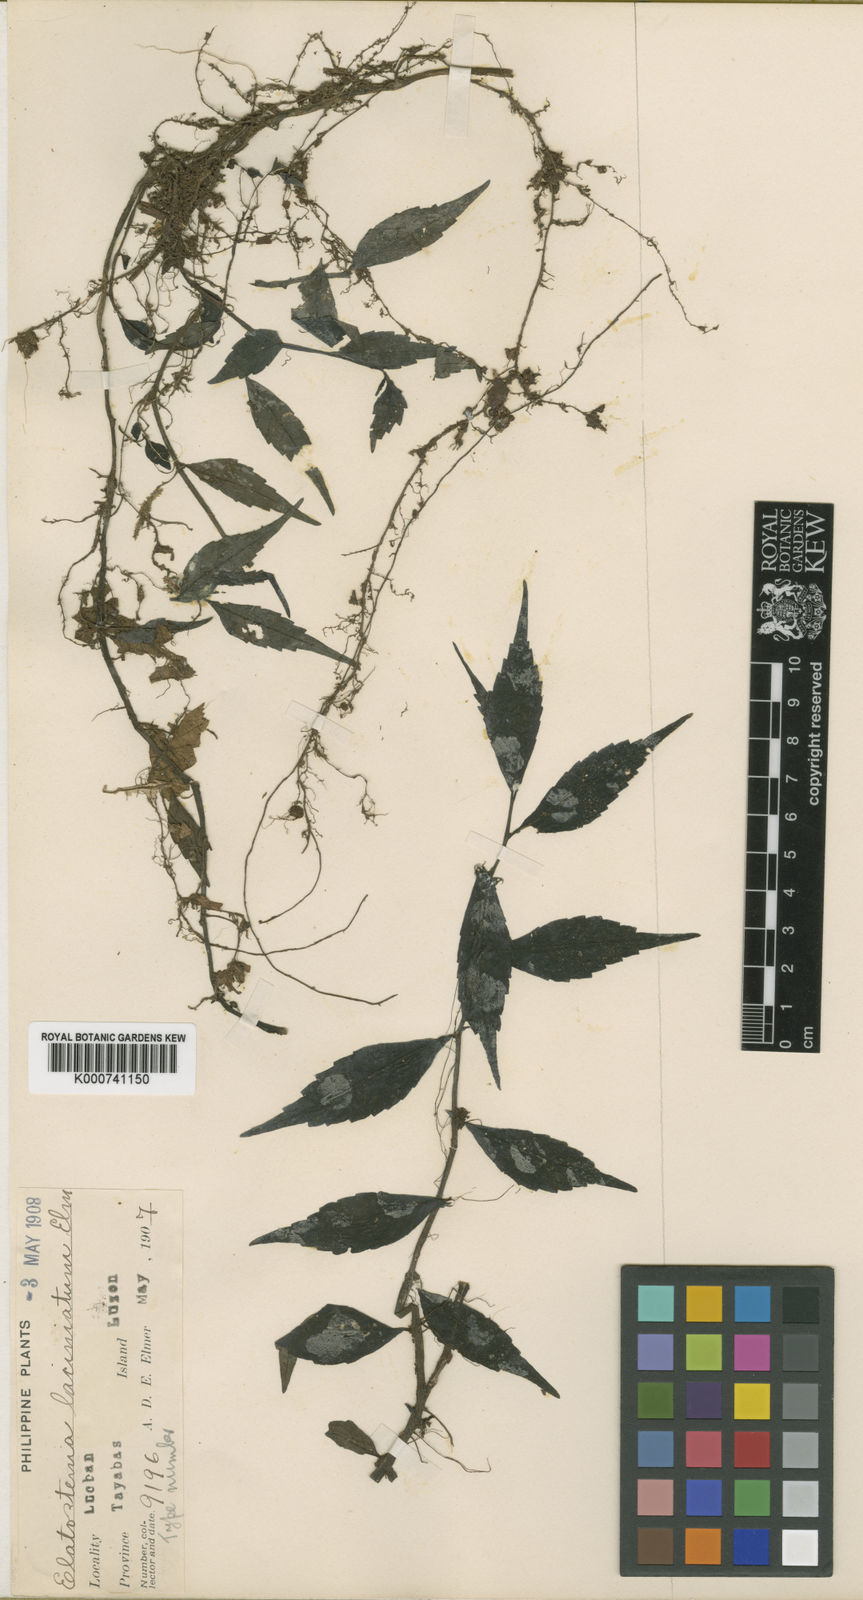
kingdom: Plantae
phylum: Tracheophyta
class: Magnoliopsida
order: Rosales
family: Urticaceae
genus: Elatostema
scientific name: Elatostema sinuatum
